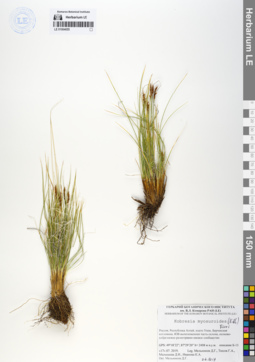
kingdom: Plantae
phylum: Tracheophyta
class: Liliopsida
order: Poales
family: Cyperaceae
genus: Carex
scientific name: Carex myosuroides
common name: Bellard's bog sedge
